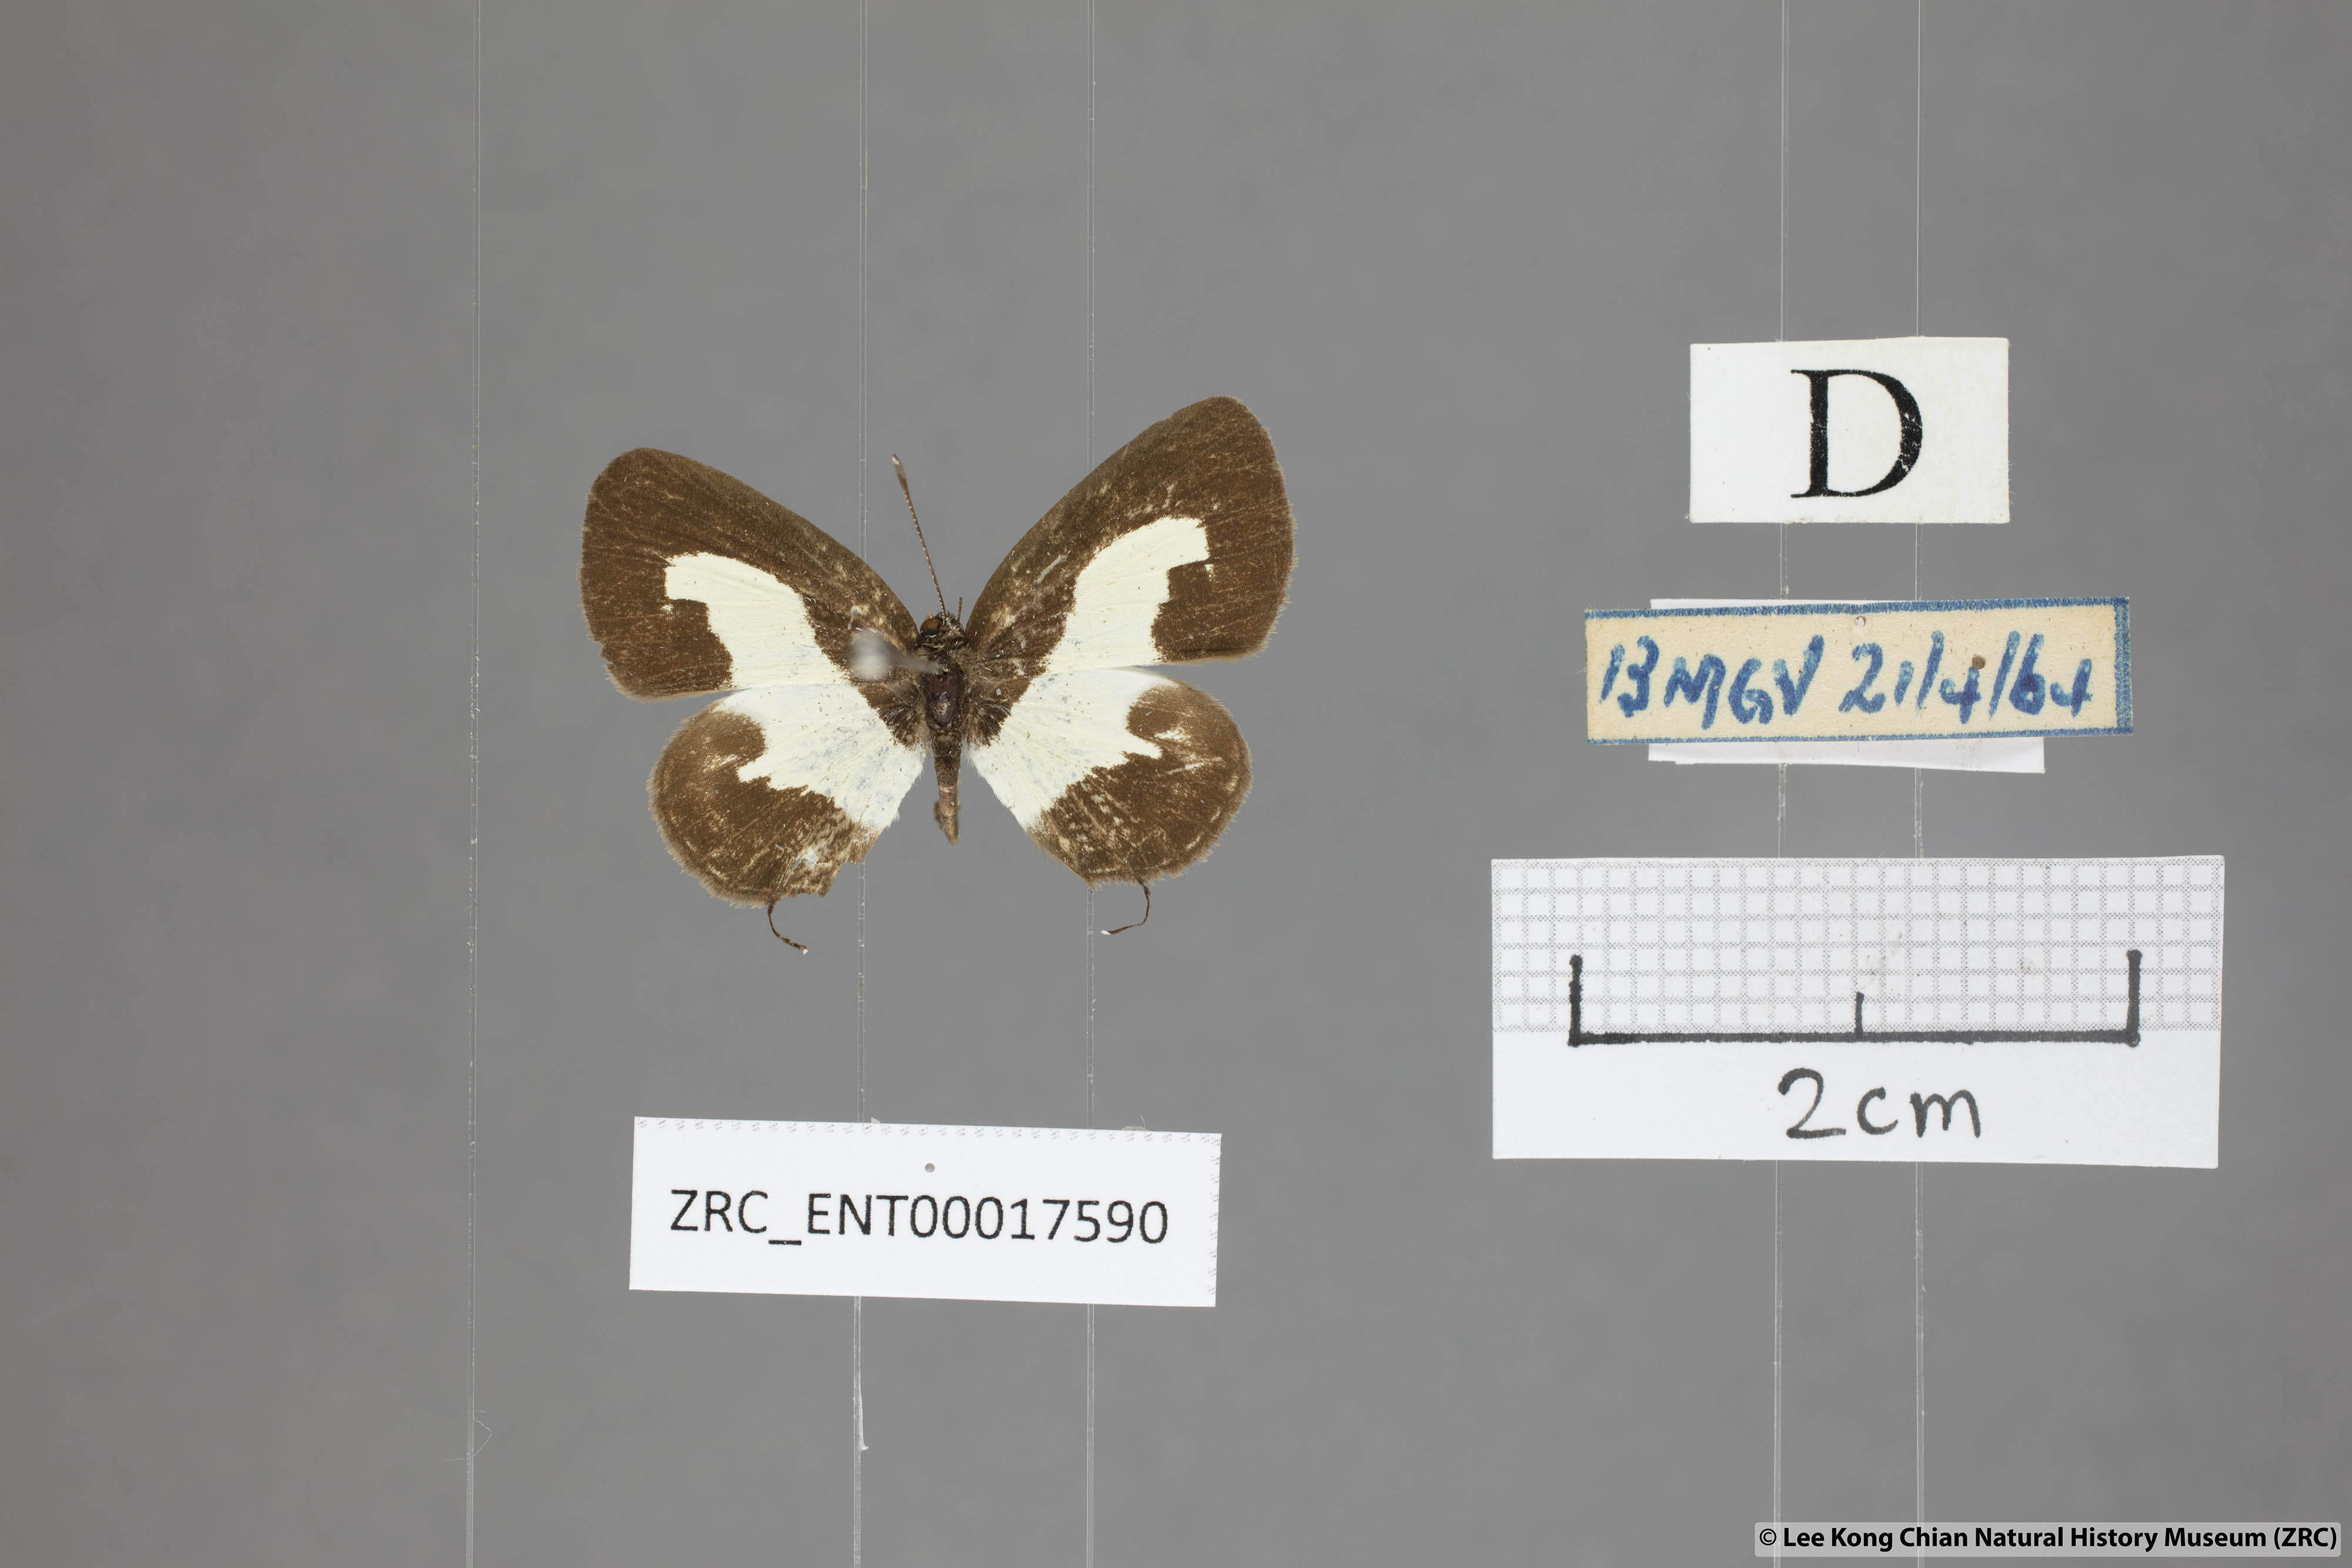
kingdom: Animalia
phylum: Arthropoda
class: Insecta
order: Lepidoptera
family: Lycaenidae
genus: Caleta
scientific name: Caleta roxus
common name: Straight pierrot
